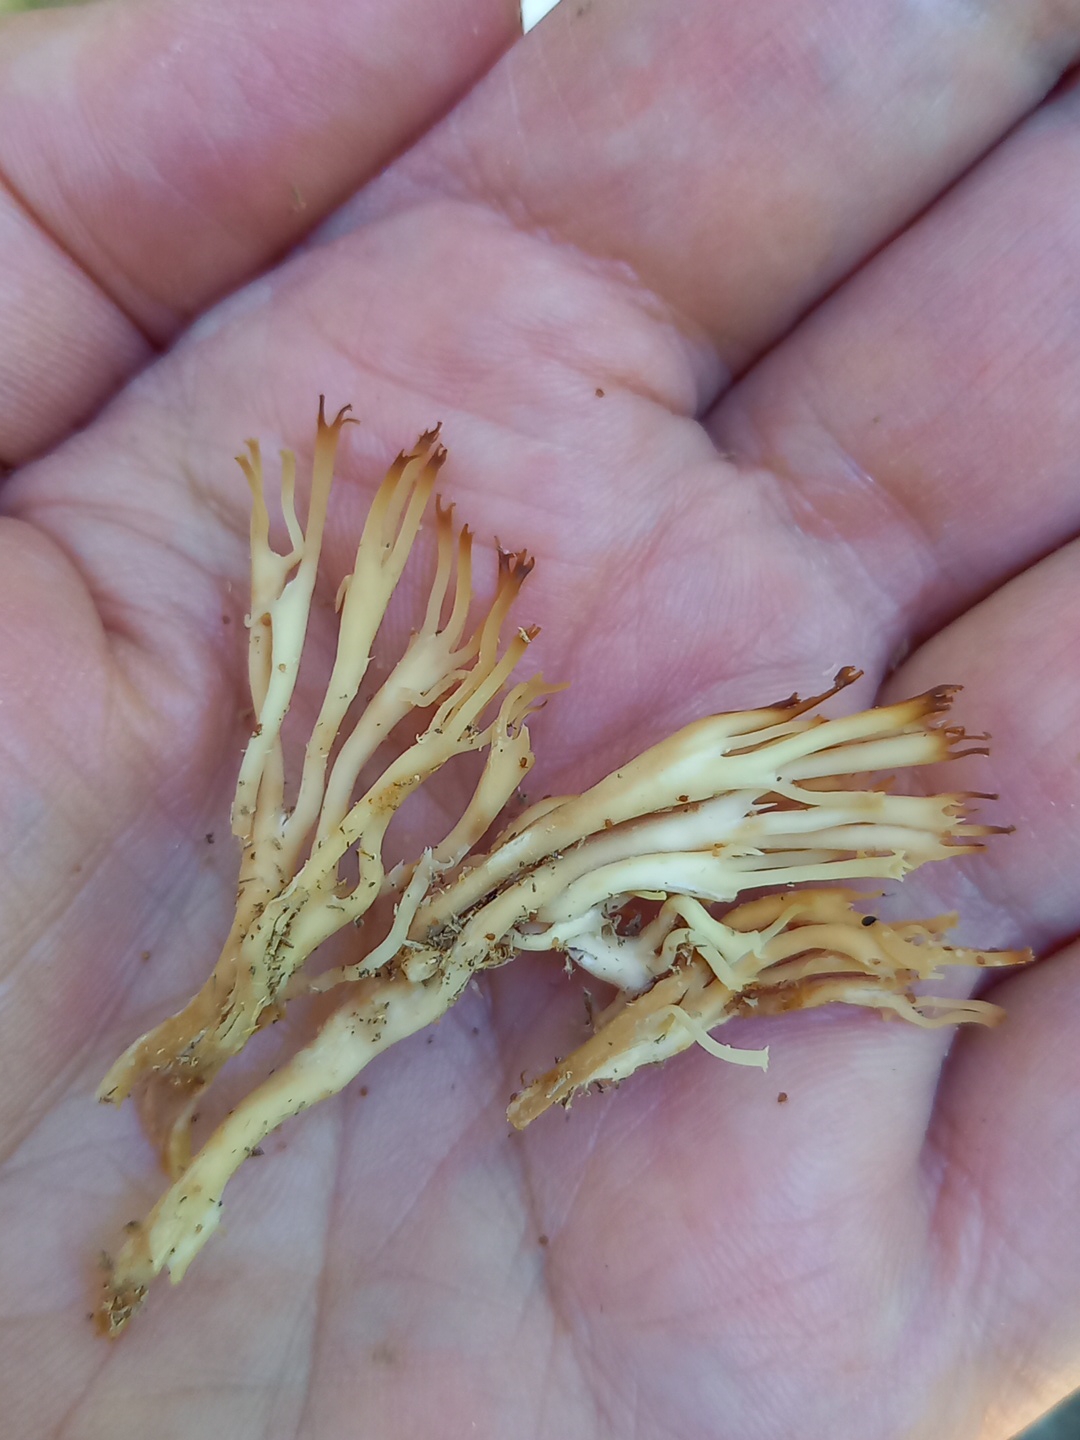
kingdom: Fungi
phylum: Basidiomycota
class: Agaricomycetes
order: Russulales
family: Auriscalpiaceae
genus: Artomyces
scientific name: Artomyces pyxidatus
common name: kandelabersvamp
